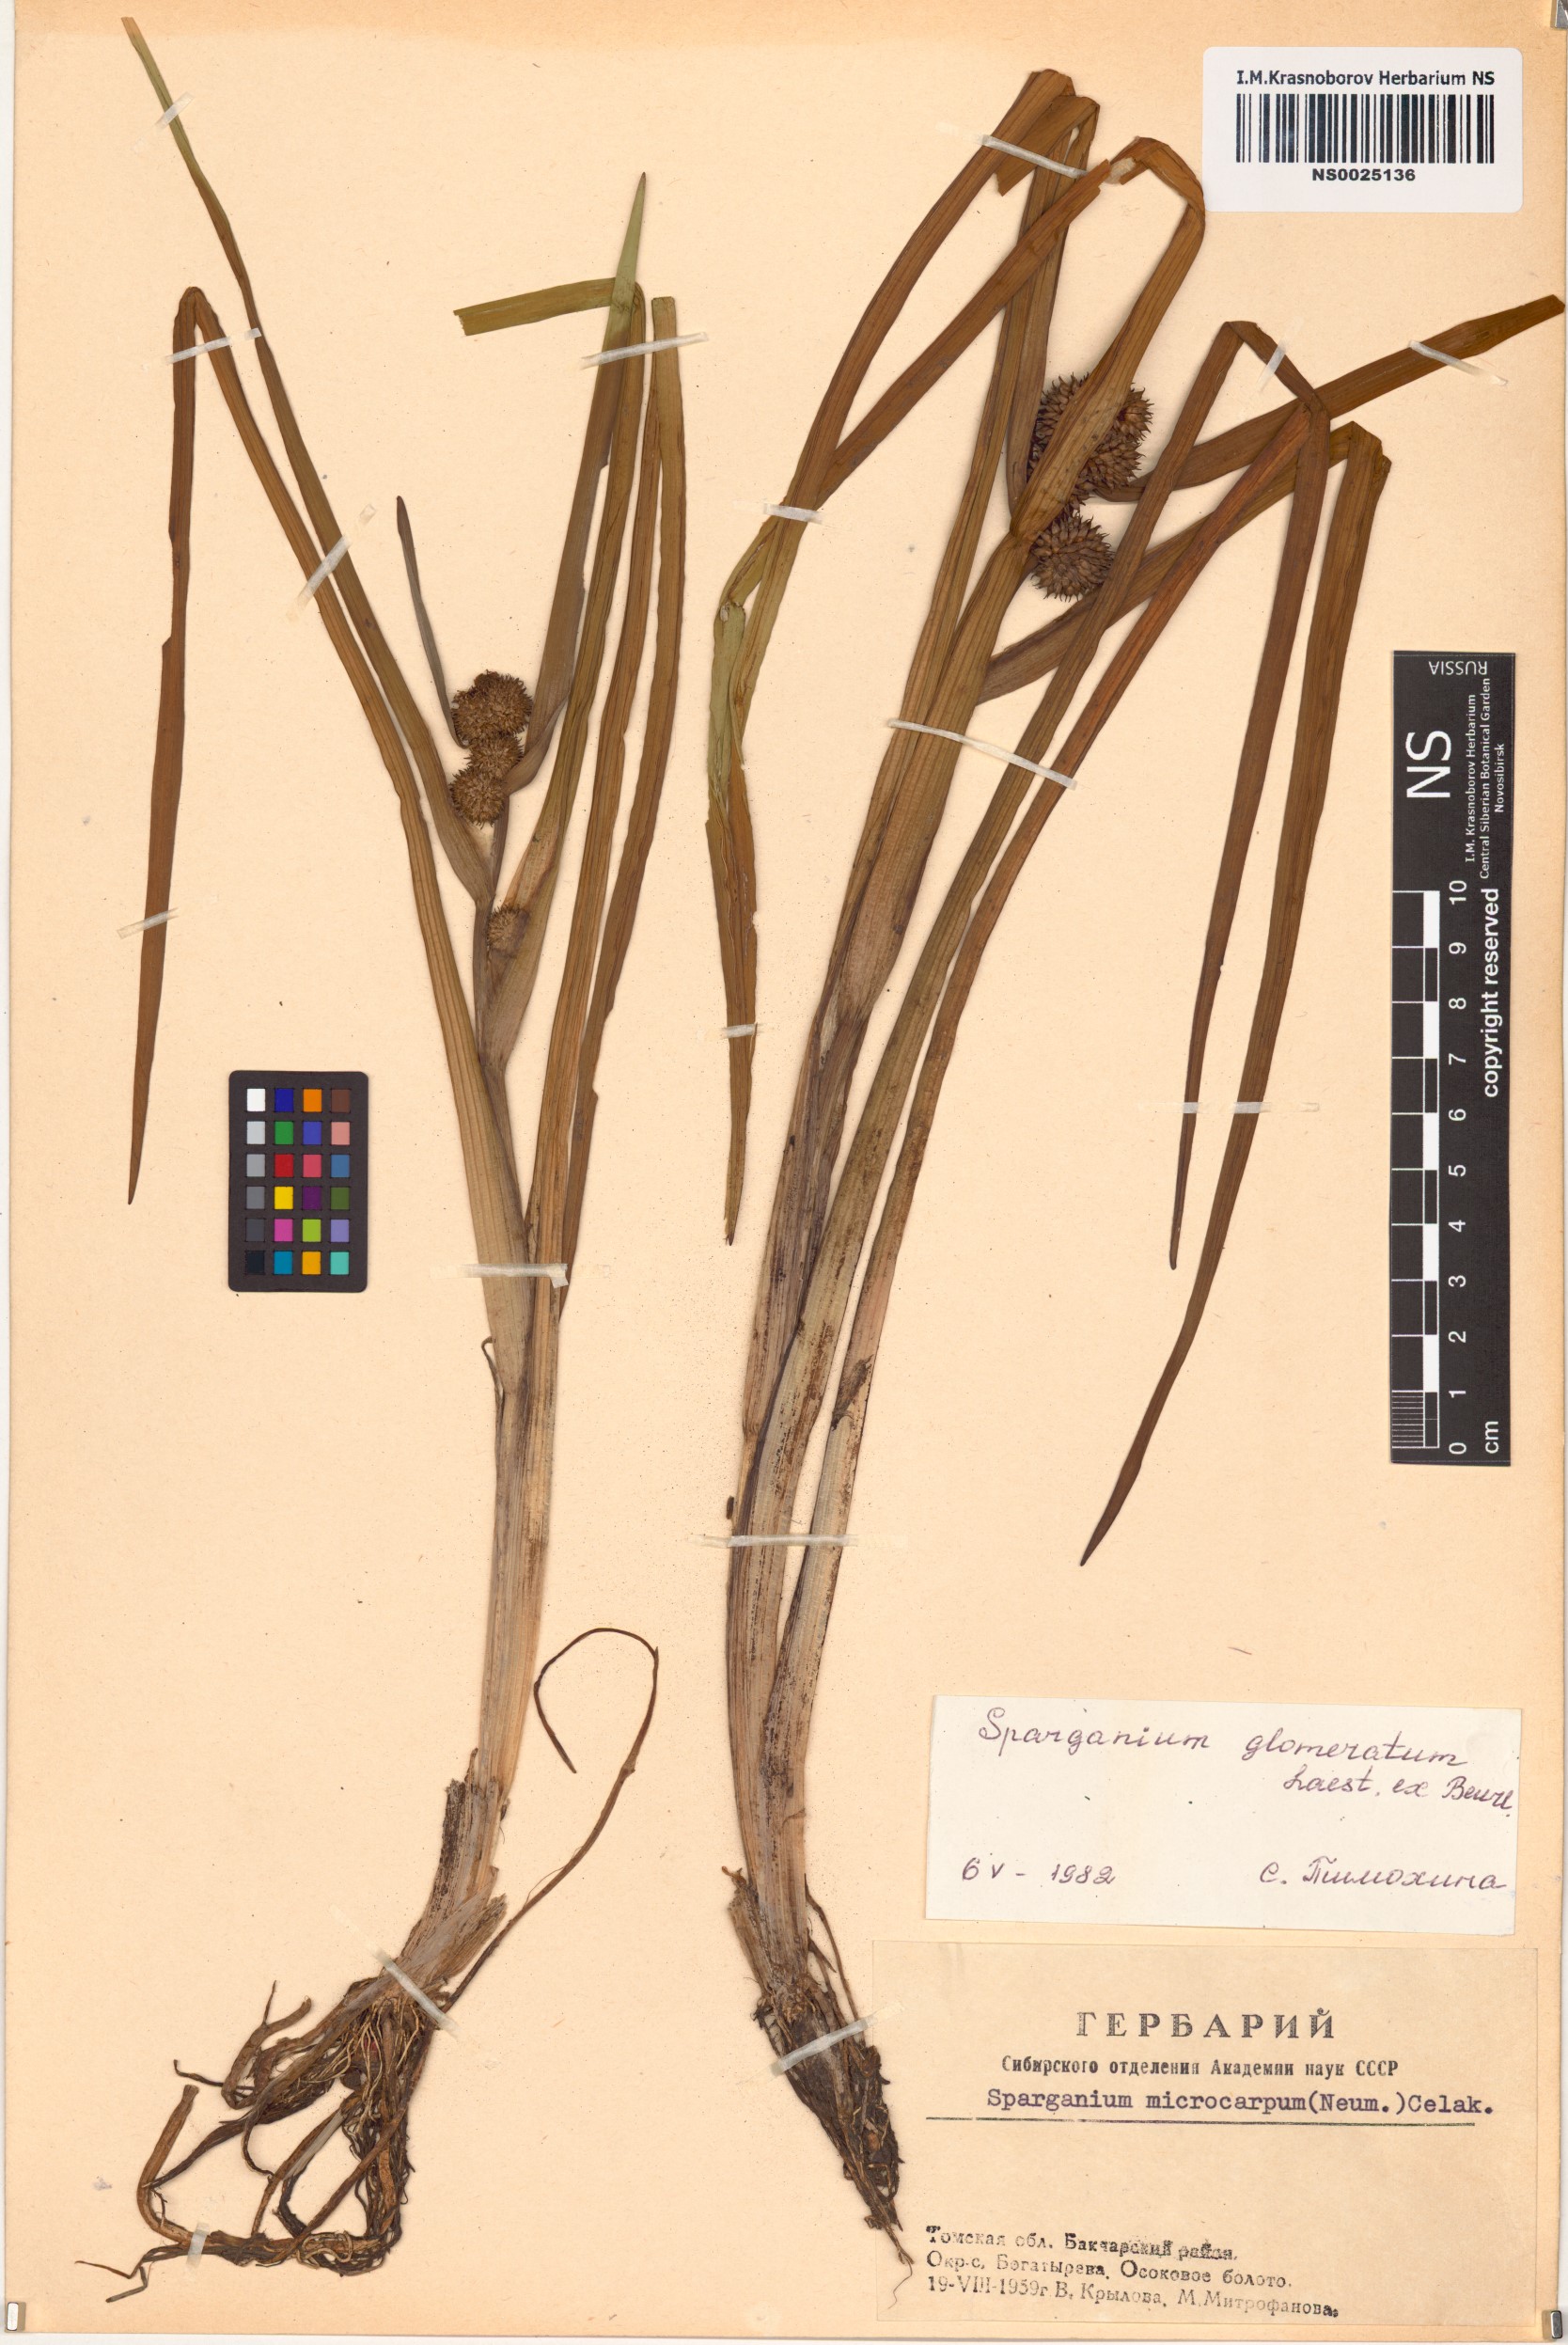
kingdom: Plantae
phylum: Tracheophyta
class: Liliopsida
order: Poales
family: Typhaceae
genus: Sparganium
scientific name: Sparganium glomeratum
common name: Clustered burreed
